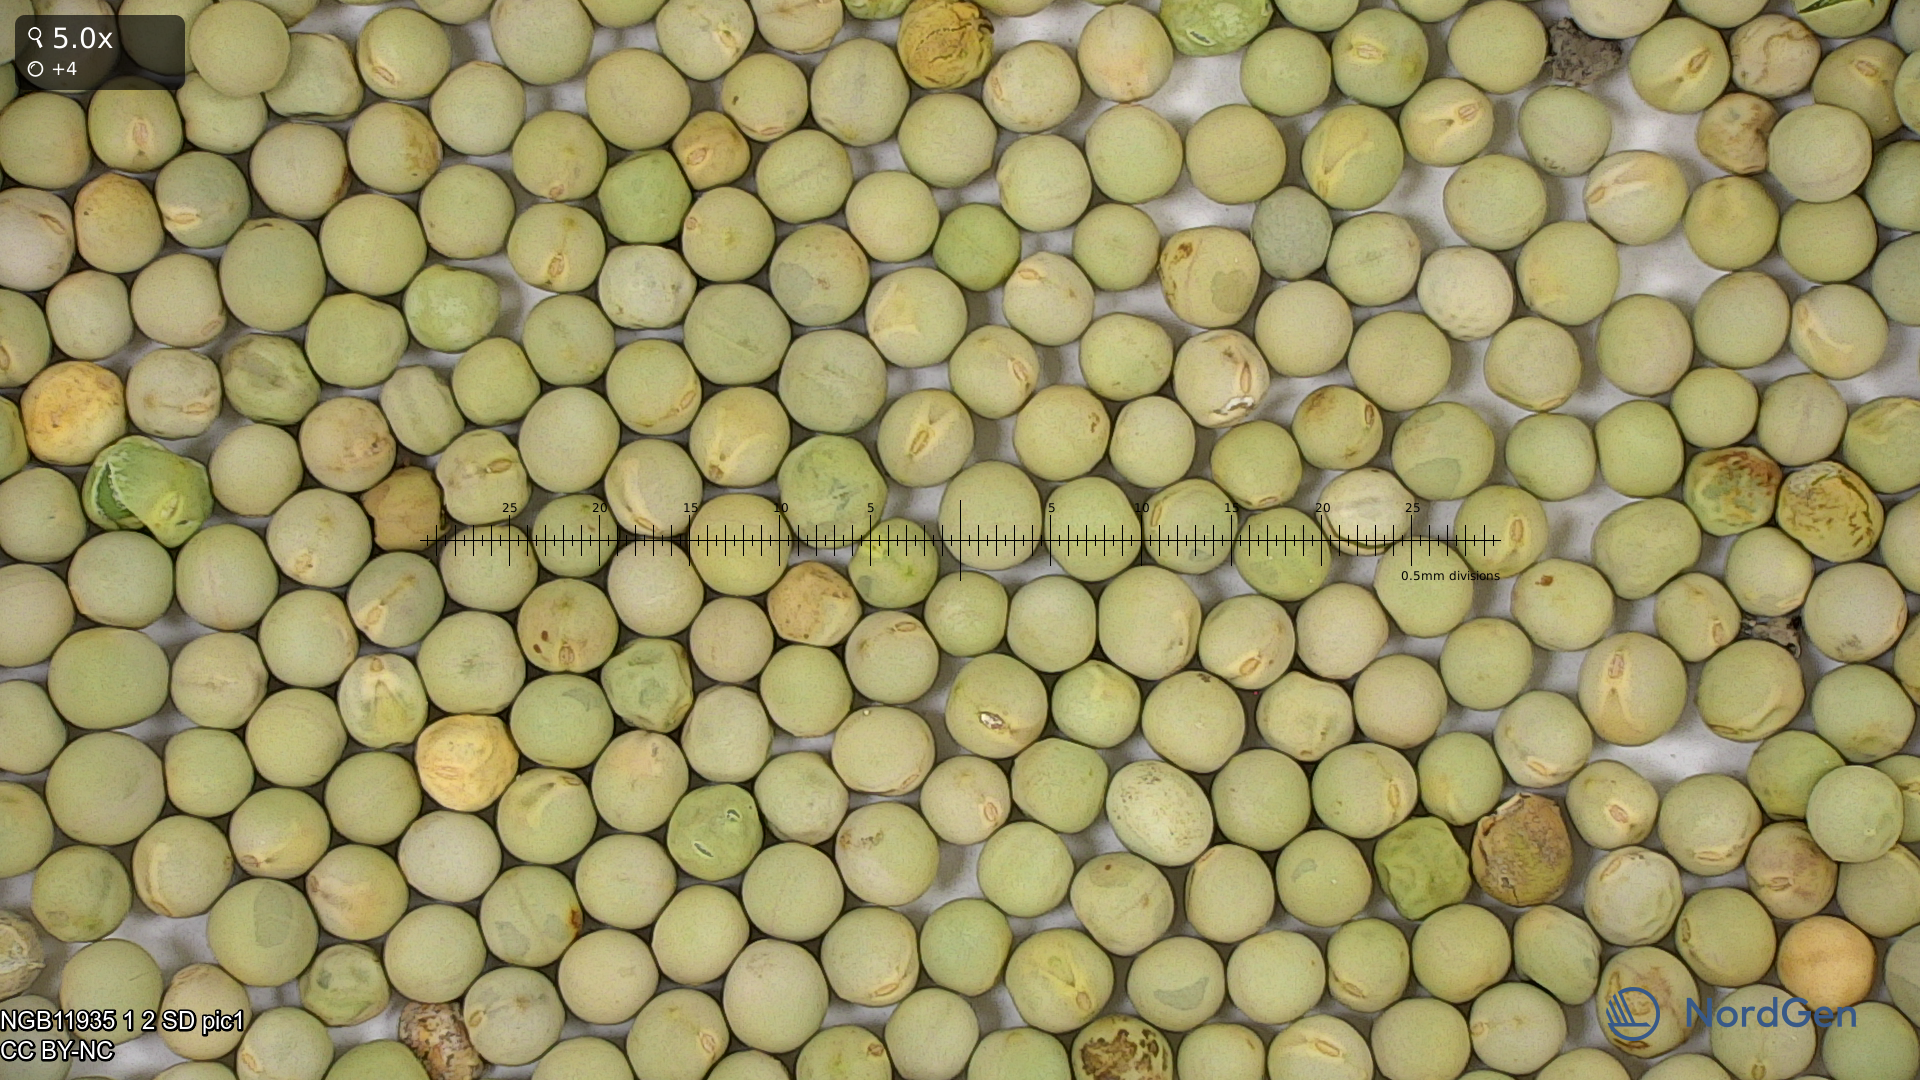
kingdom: Plantae
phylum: Tracheophyta
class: Magnoliopsida
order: Fabales
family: Fabaceae
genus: Lathyrus
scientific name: Lathyrus oleraceus
